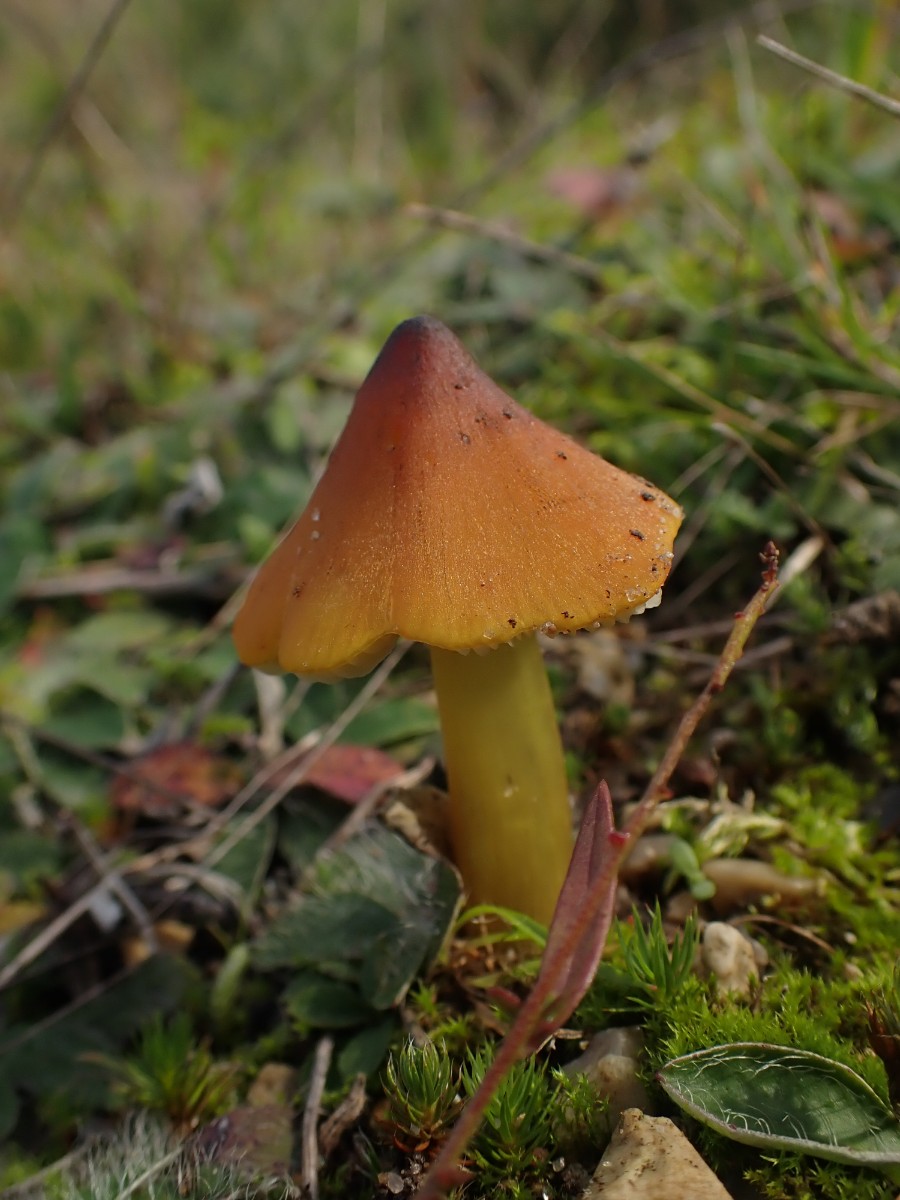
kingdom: Fungi
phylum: Basidiomycota
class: Agaricomycetes
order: Agaricales
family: Hygrophoraceae
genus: Hygrocybe
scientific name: Hygrocybe conica
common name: kegle-vokshat
